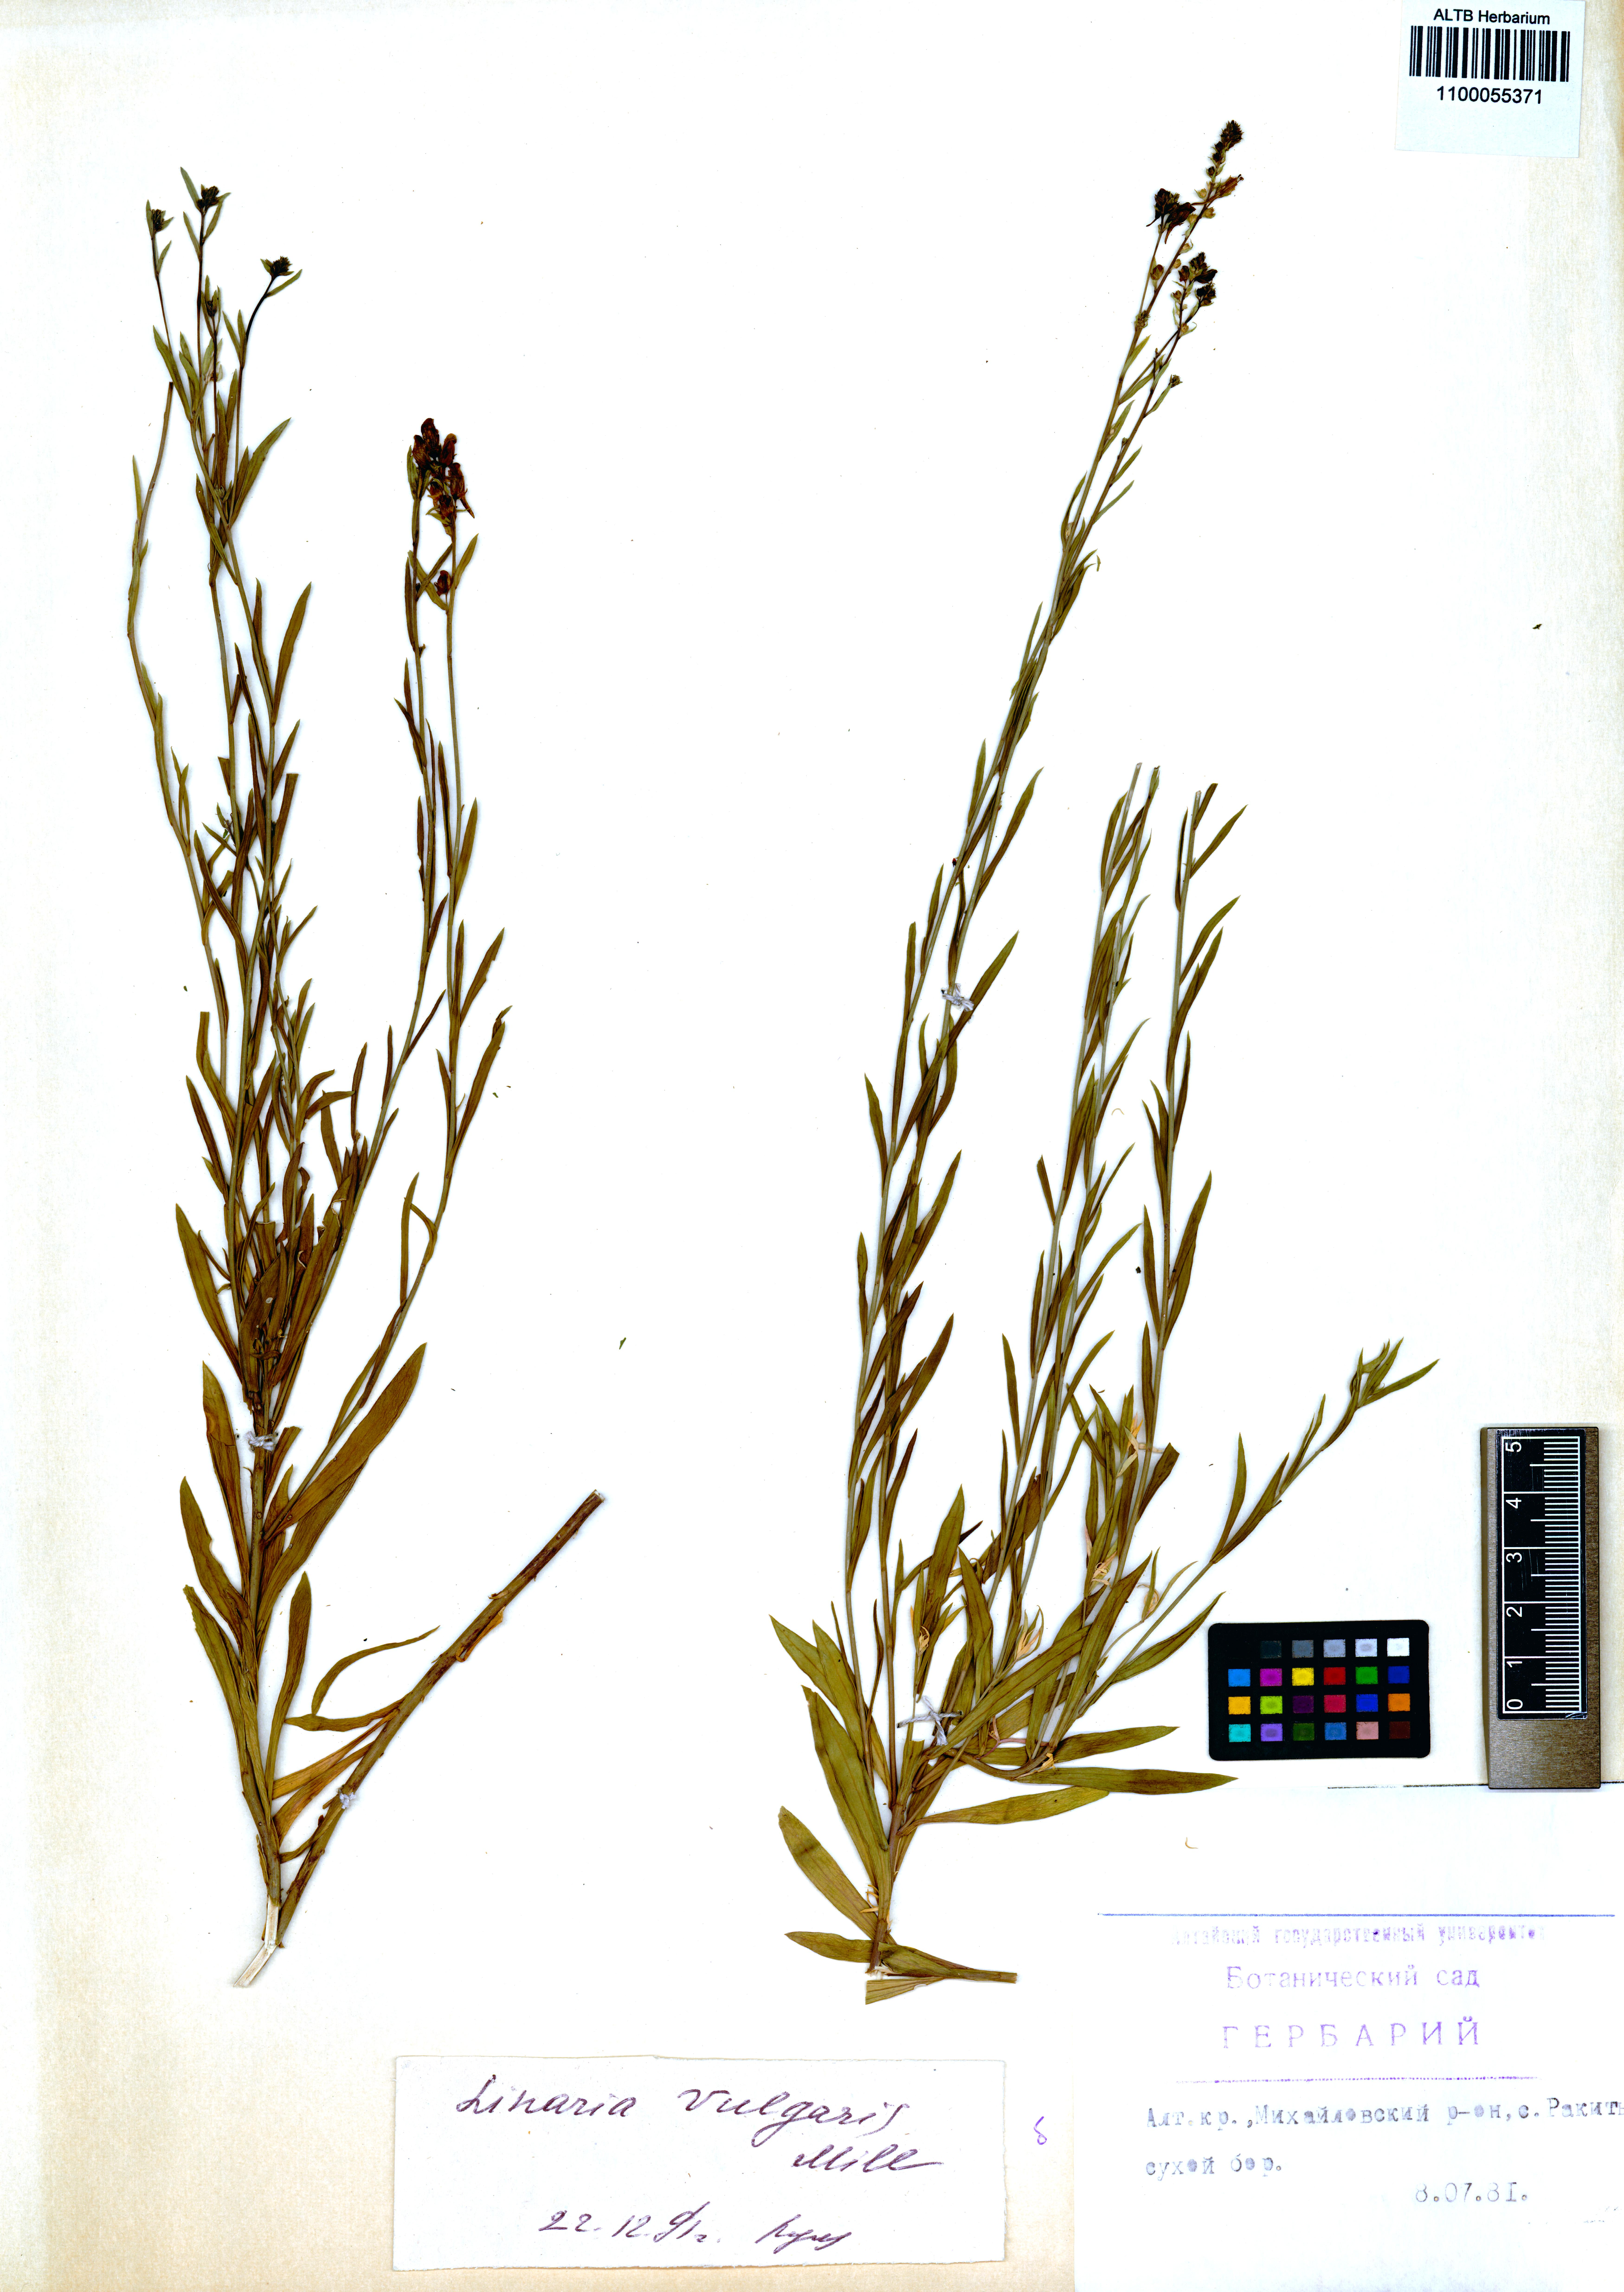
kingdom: Plantae
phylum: Tracheophyta
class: Magnoliopsida
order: Lamiales
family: Plantaginaceae
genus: Linaria
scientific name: Linaria vulgaris
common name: Butter and eggs
